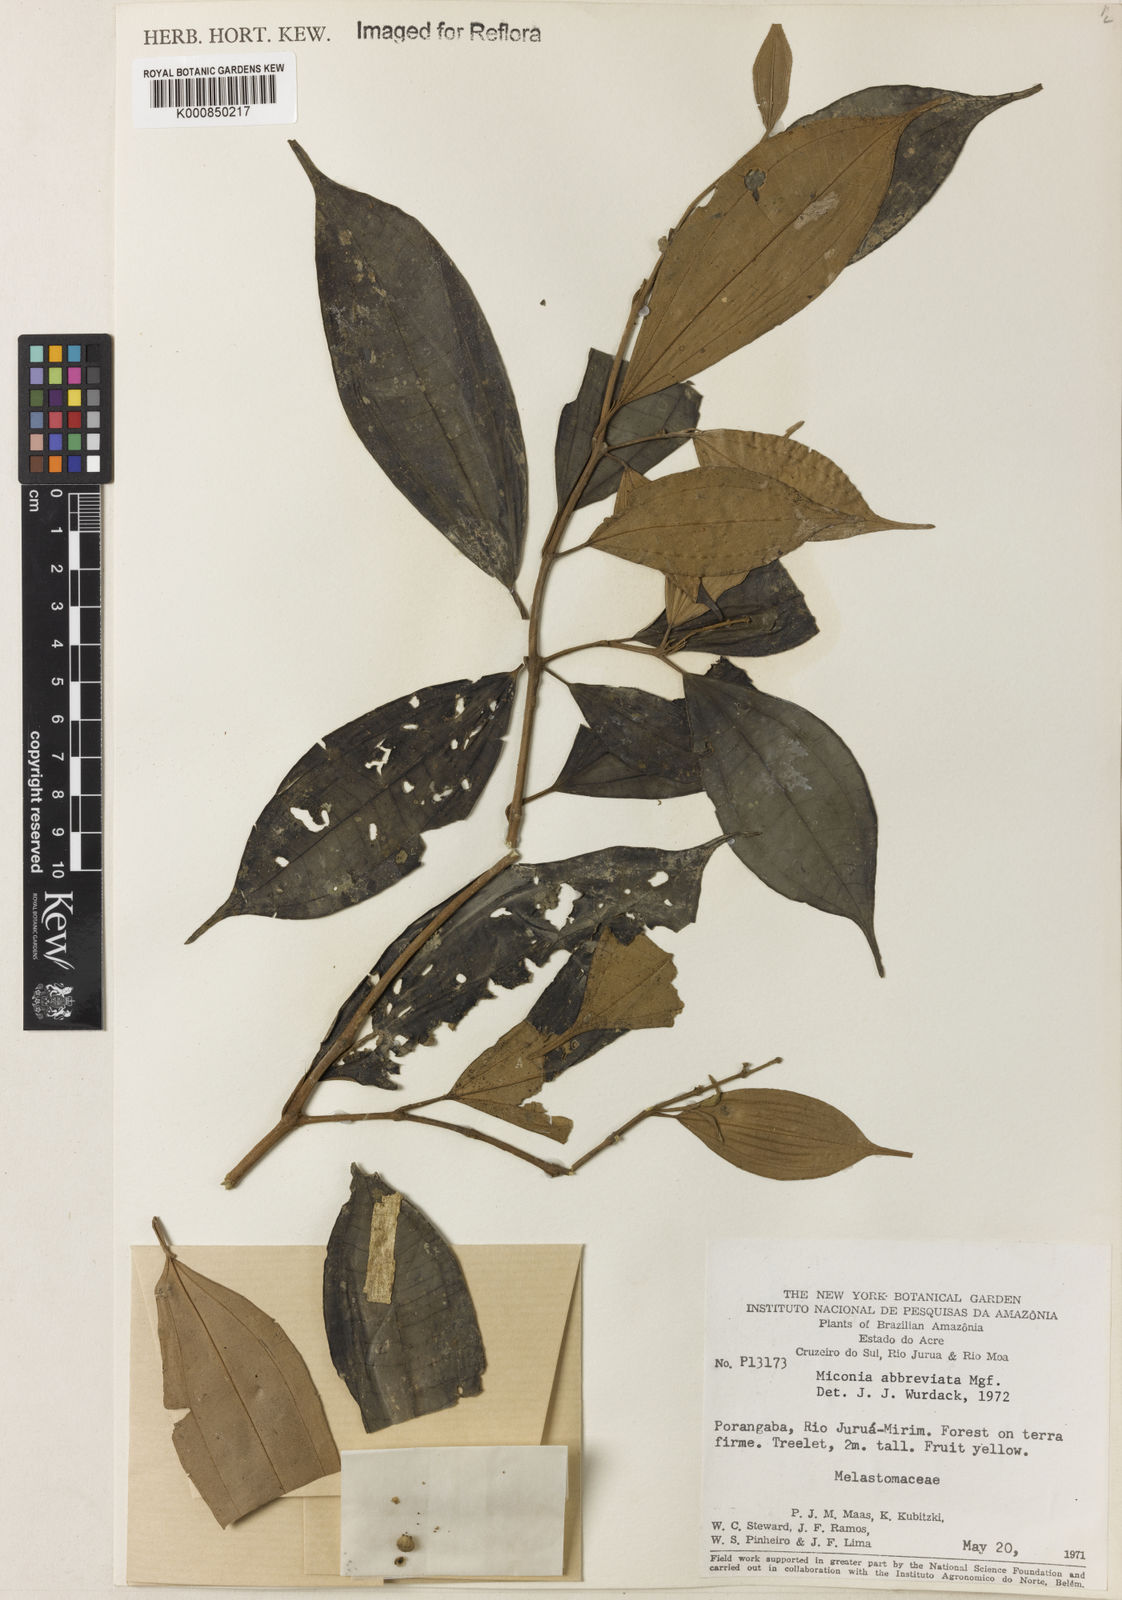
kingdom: Plantae
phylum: Tracheophyta
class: Magnoliopsida
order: Myrtales
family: Melastomataceae
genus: Miconia
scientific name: Miconia abbreviata
